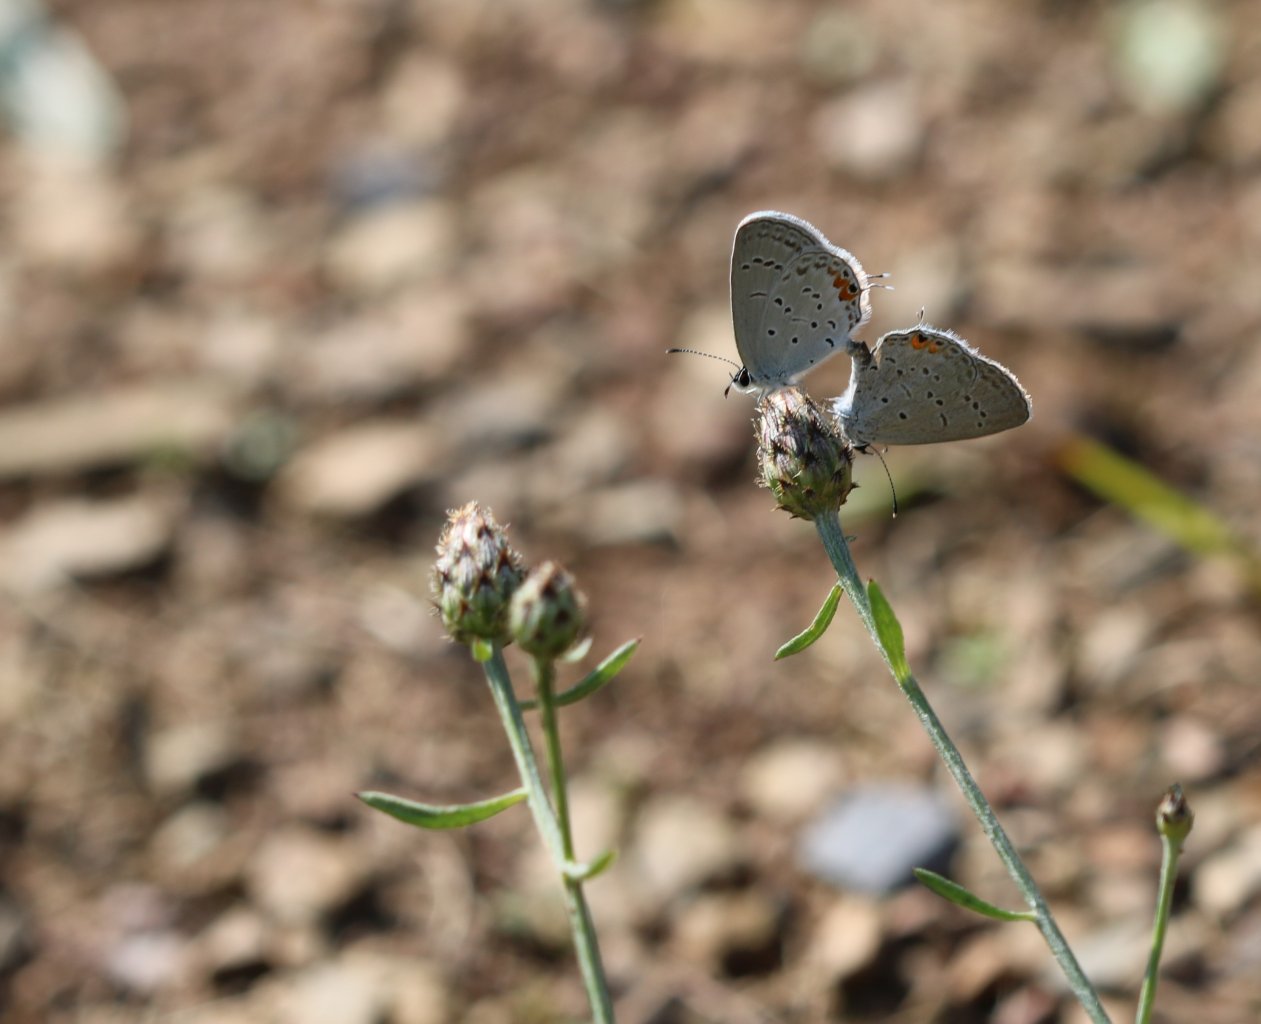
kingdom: Animalia
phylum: Arthropoda
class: Insecta
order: Lepidoptera
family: Lycaenidae
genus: Elkalyce
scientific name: Elkalyce comyntas
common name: Eastern Tailed-Blue
